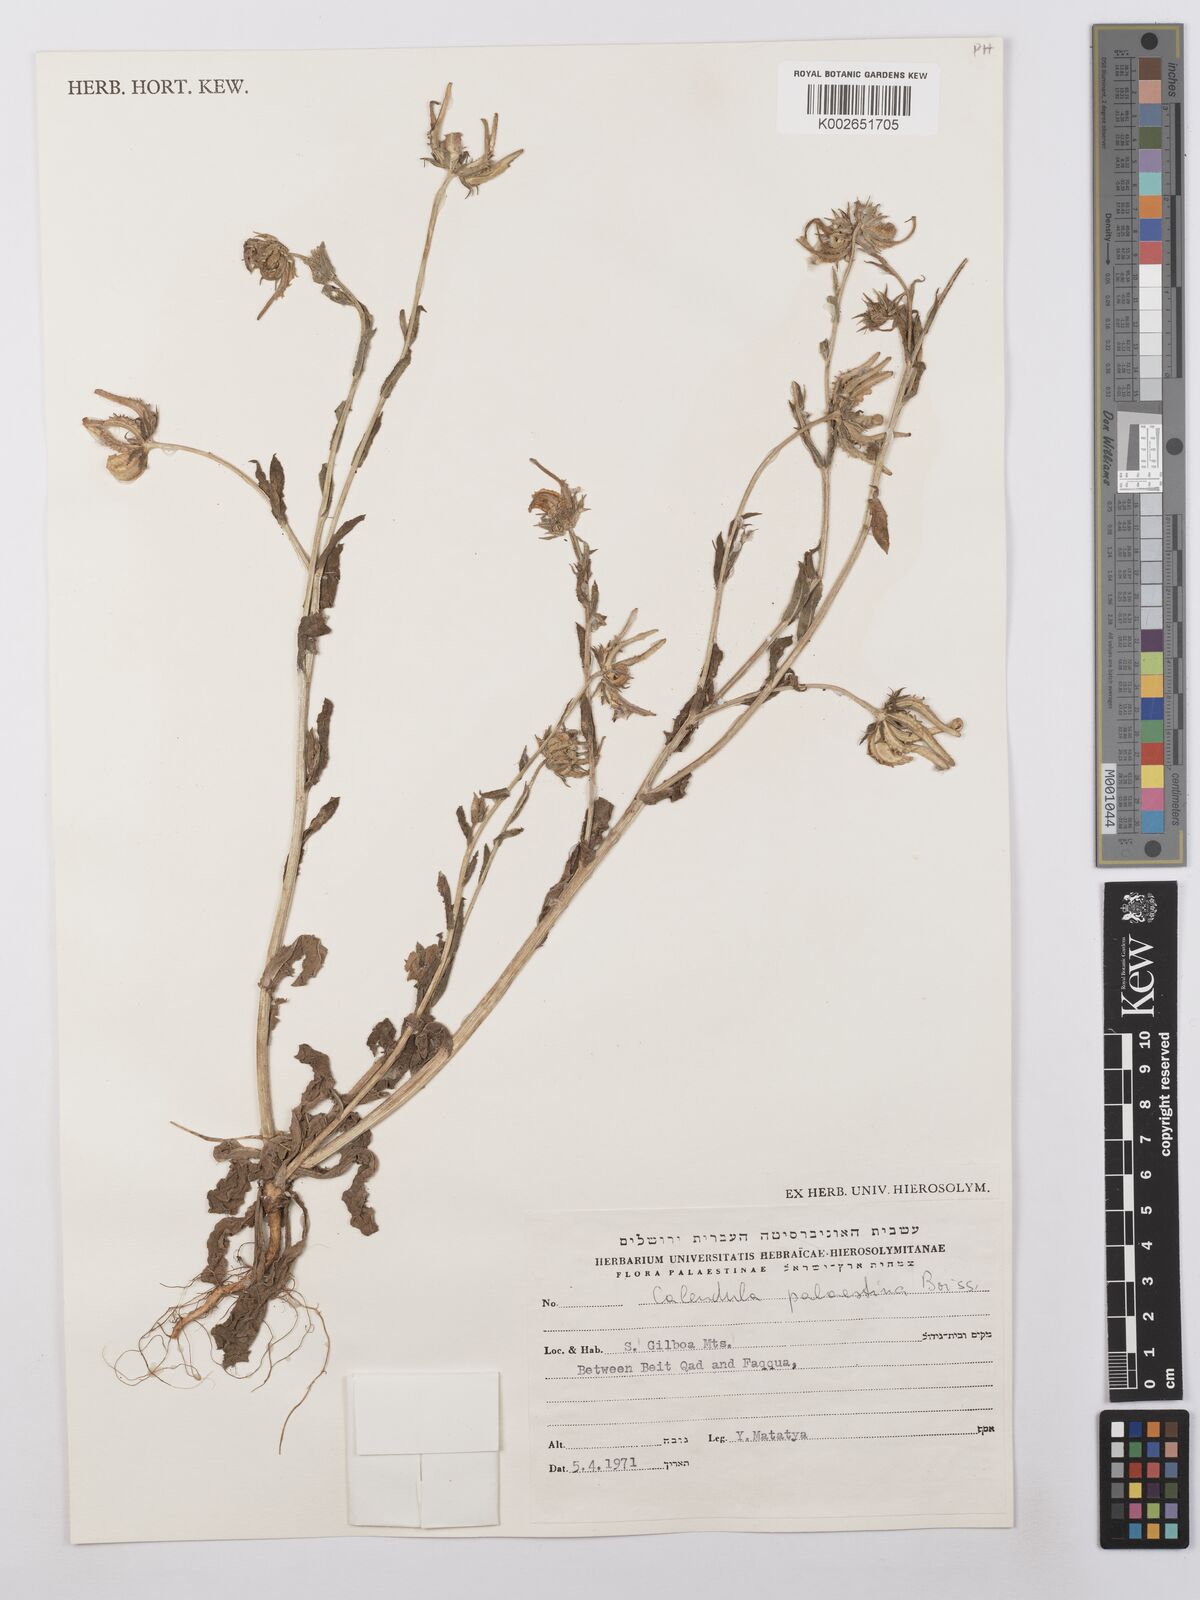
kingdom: Plantae
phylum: Tracheophyta
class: Magnoliopsida
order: Asterales
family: Asteraceae
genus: Calendula
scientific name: Calendula palaestina
